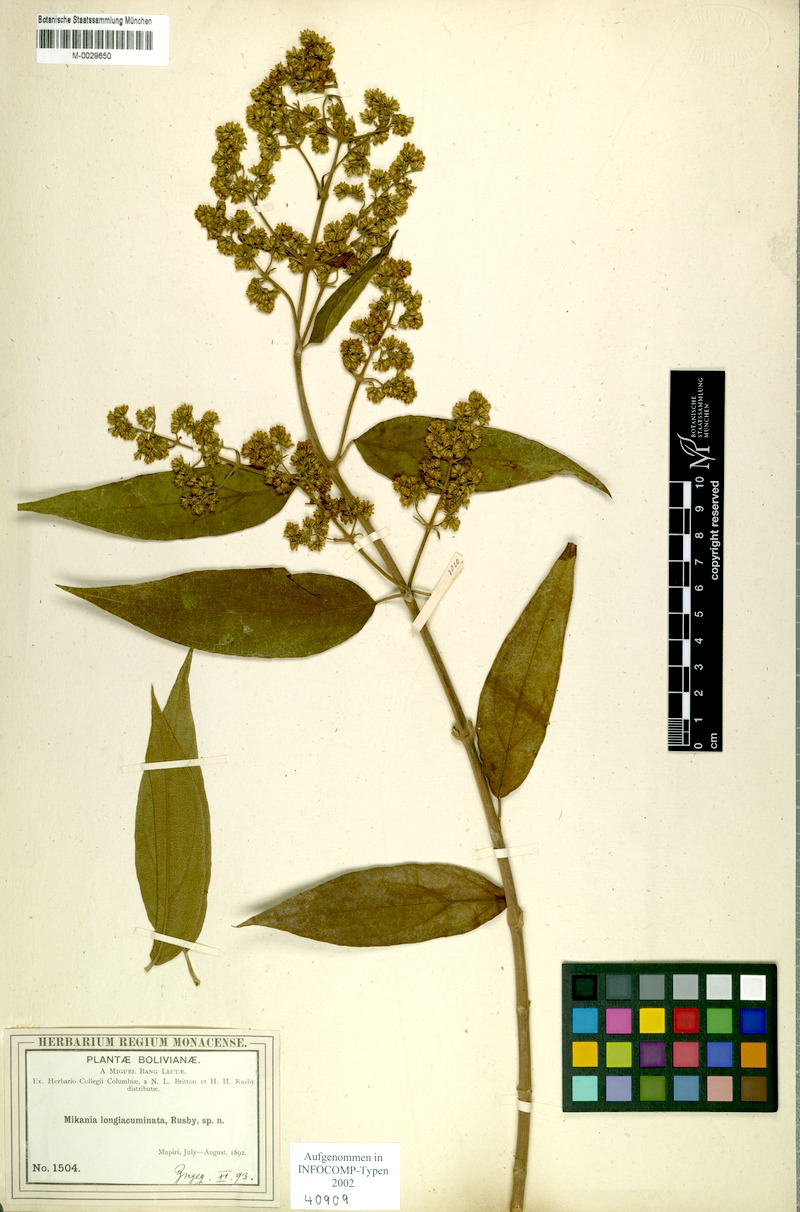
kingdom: Plantae
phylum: Tracheophyta
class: Magnoliopsida
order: Asterales
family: Asteraceae
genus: Mikania
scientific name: Mikania longiacuminata
